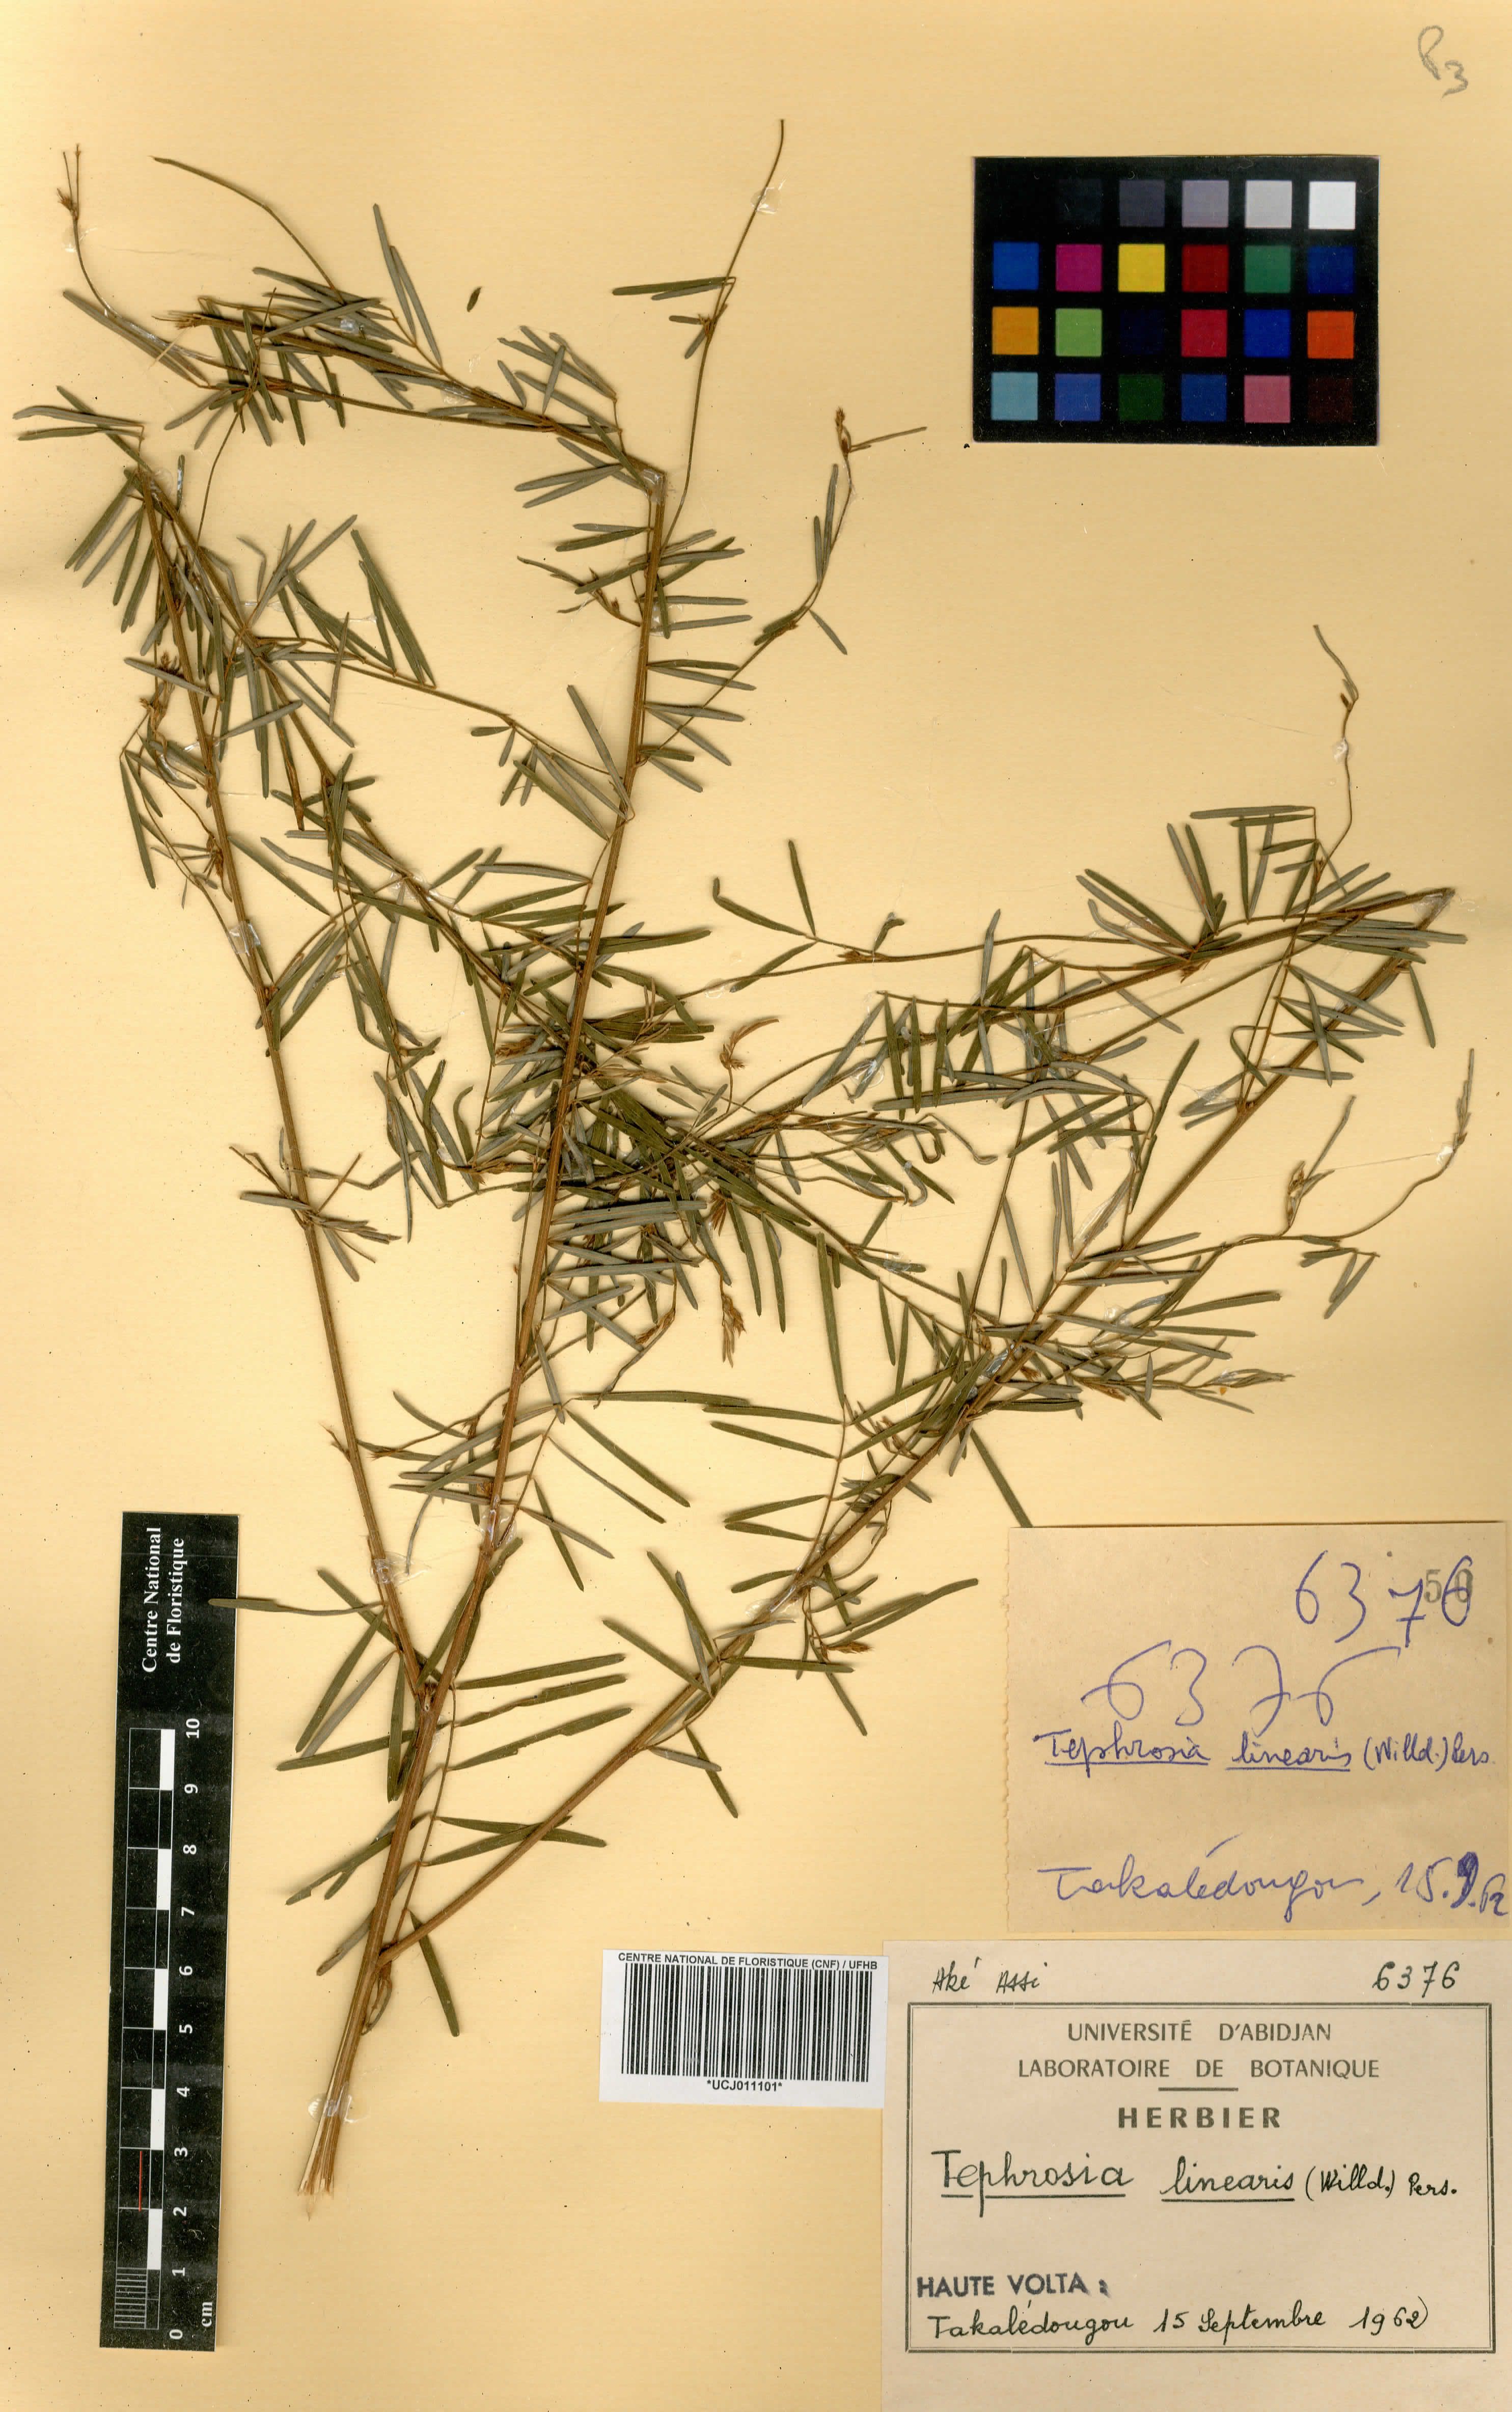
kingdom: Plantae
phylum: Tracheophyta
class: Magnoliopsida
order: Fabales
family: Fabaceae
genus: Tephrosia
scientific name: Tephrosia linearis
